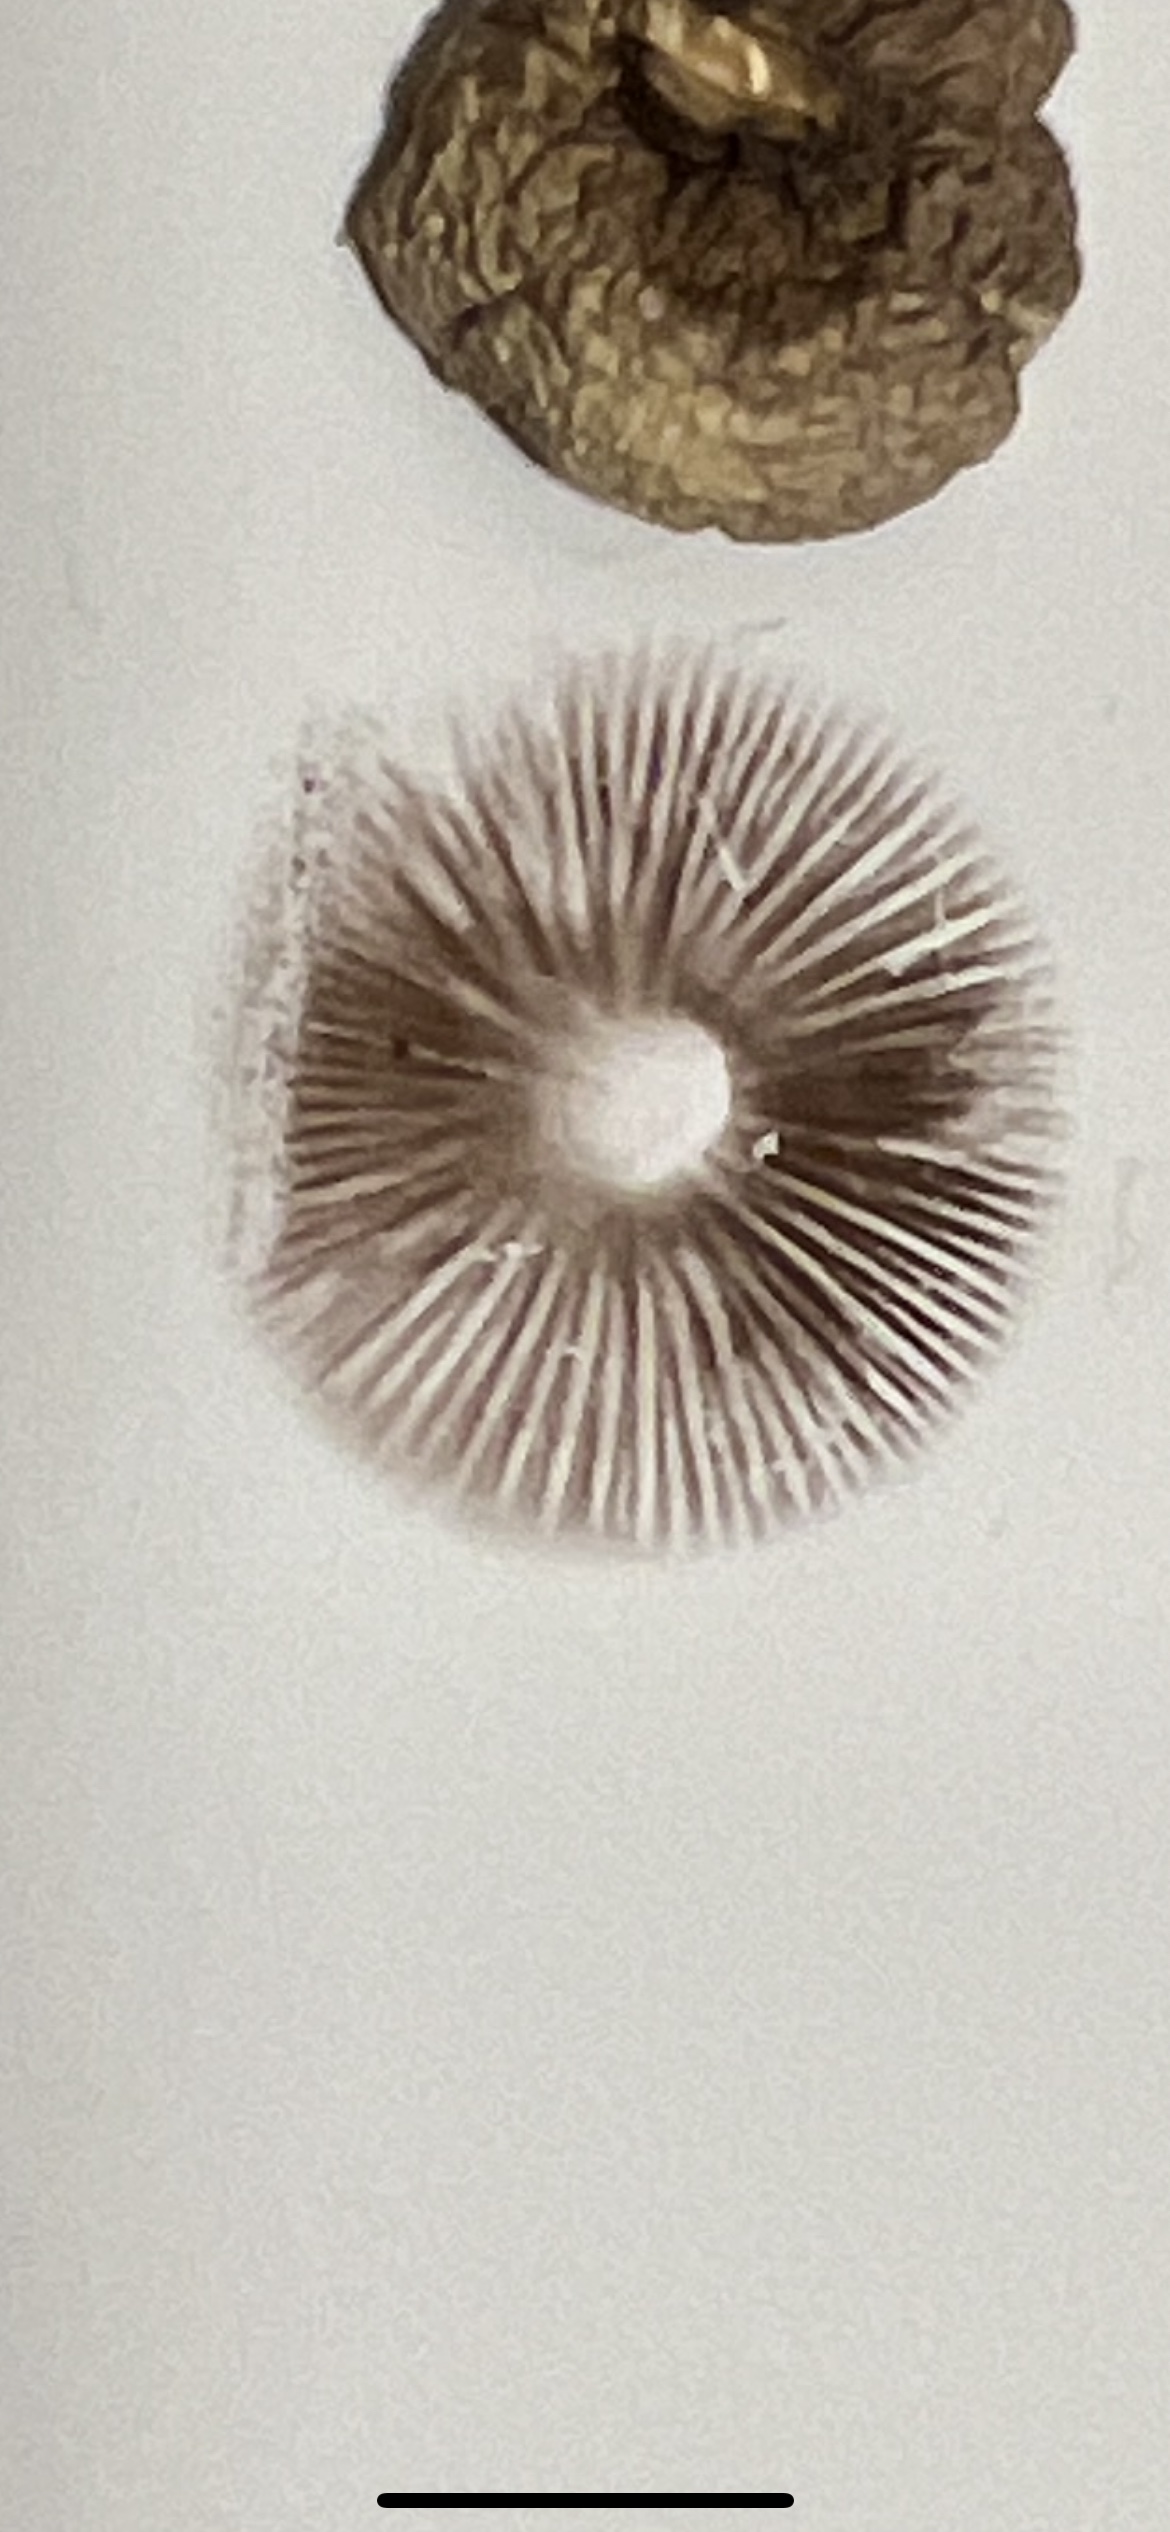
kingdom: Fungi
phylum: Basidiomycota
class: Agaricomycetes
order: Agaricales
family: Strophariaceae
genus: Stropharia
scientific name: Stropharia inuncta
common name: lillabrun bredblad
